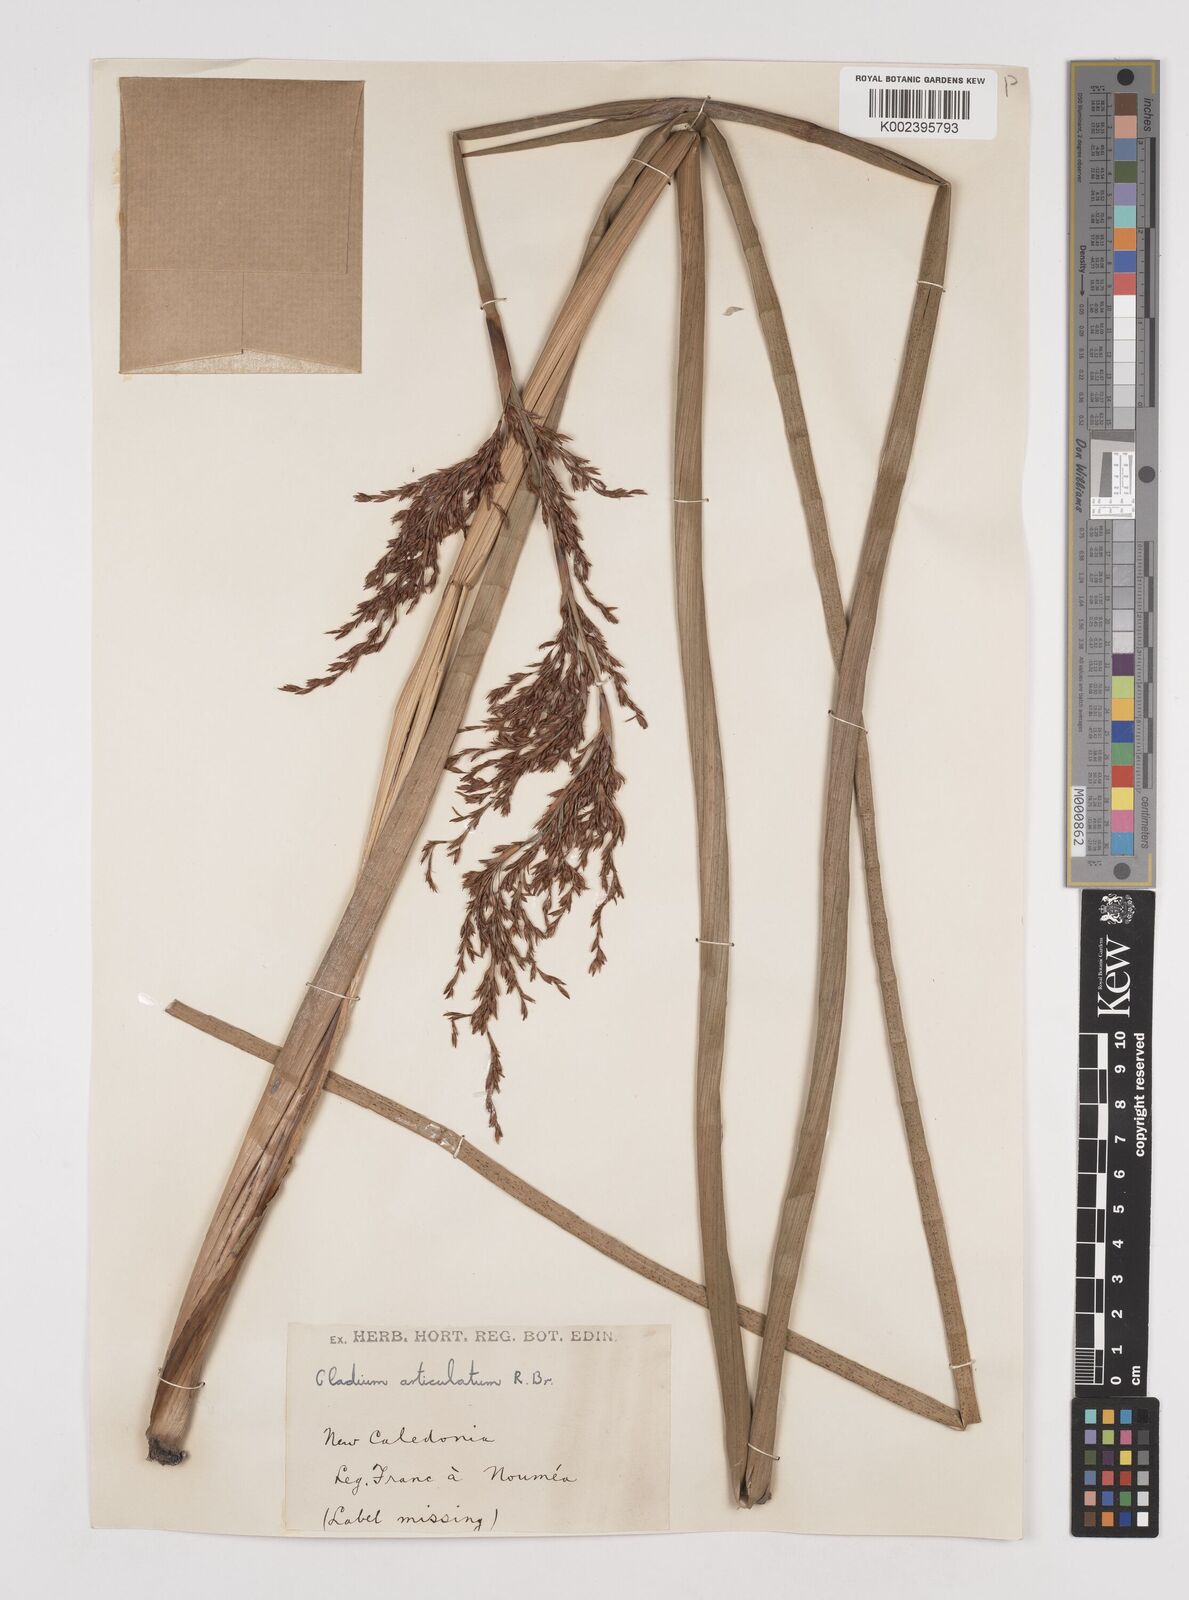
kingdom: Plantae
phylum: Tracheophyta
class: Liliopsida
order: Poales
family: Cyperaceae
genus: Machaerina
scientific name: Machaerina articulata
